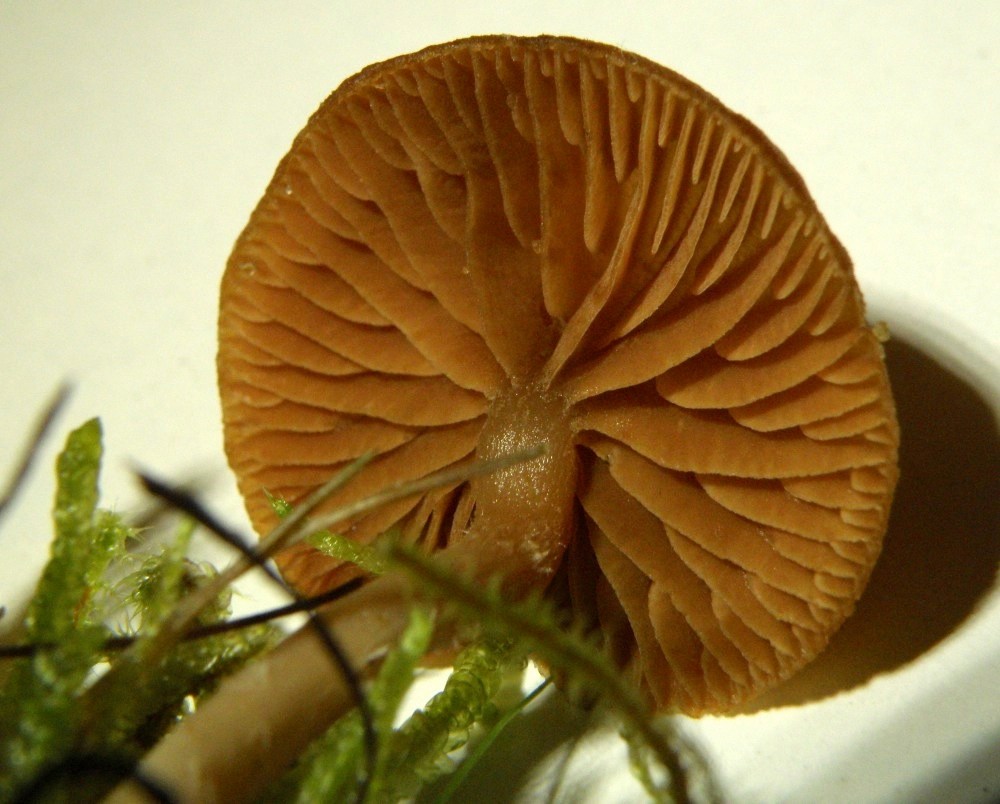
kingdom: Fungi
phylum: Basidiomycota
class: Agaricomycetes
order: Agaricales
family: Tubariaceae
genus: Tubaria
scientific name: Tubaria furfuracea
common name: kliddet fnughat
